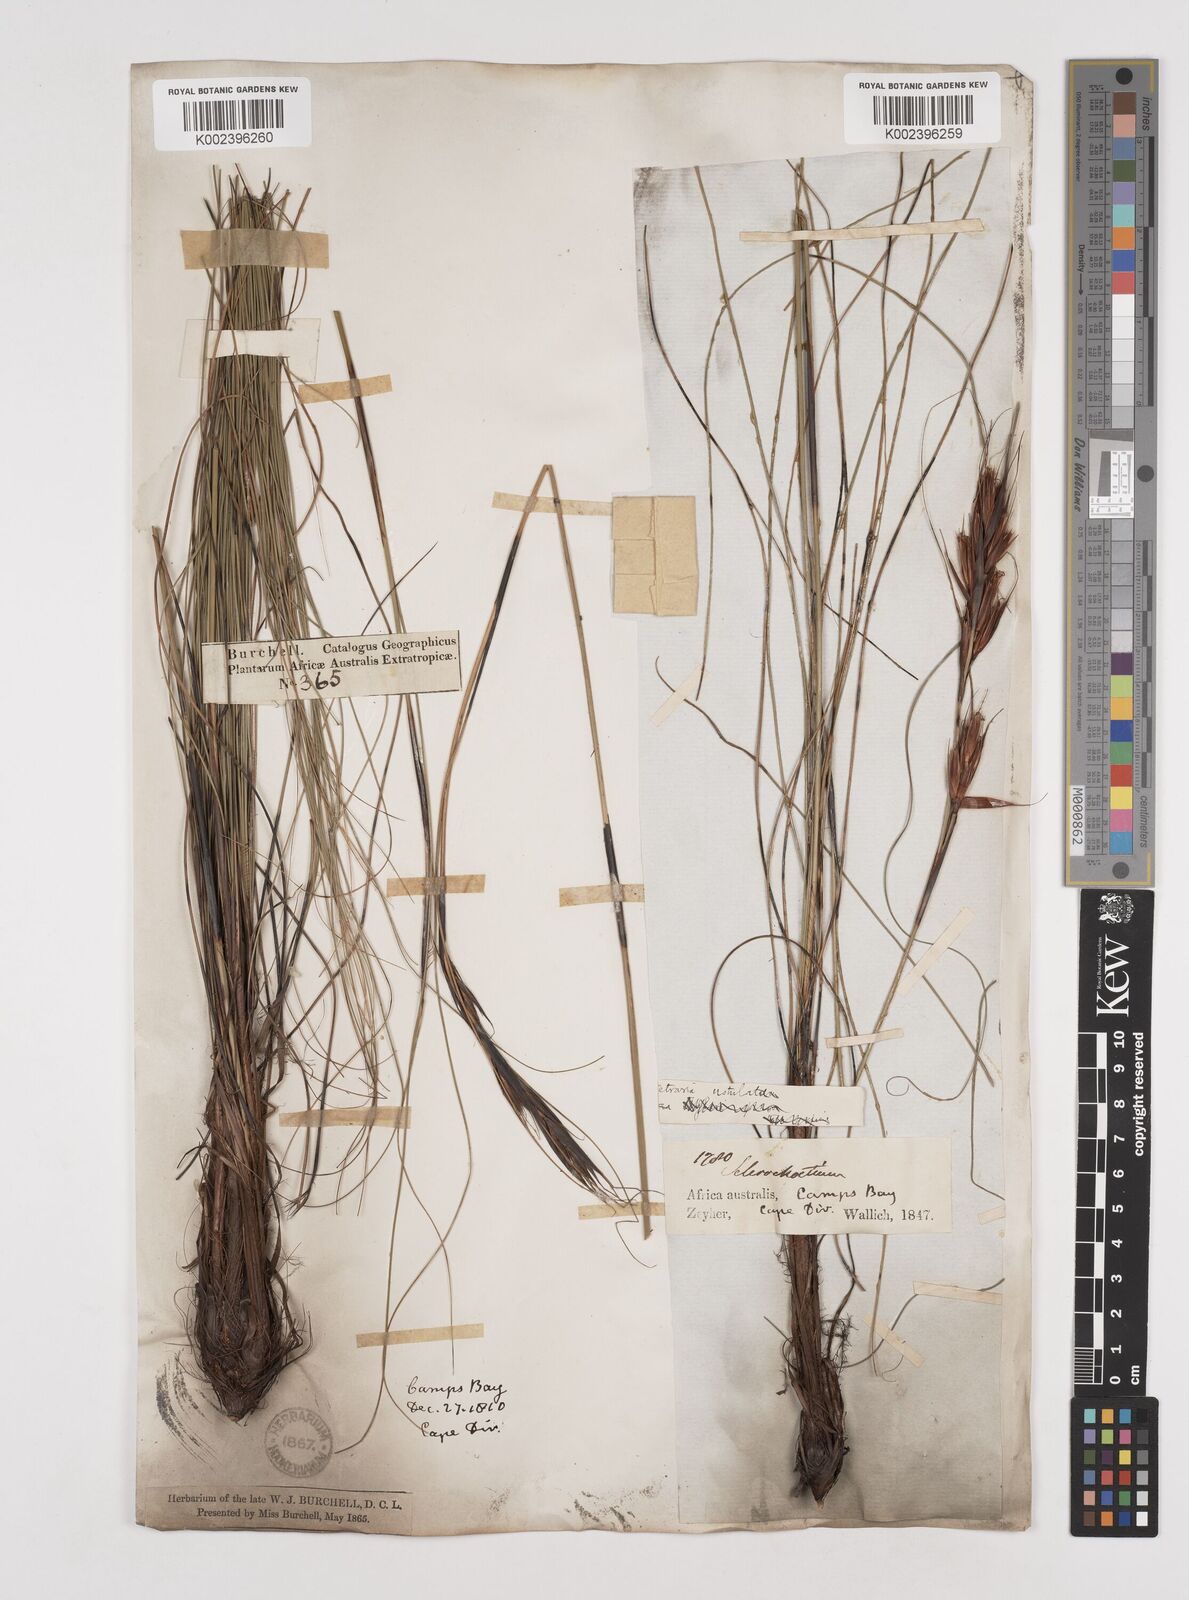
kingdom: Plantae
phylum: Tracheophyta
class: Liliopsida
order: Poales
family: Cyperaceae
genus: Tetraria
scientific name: Tetraria ustulata
